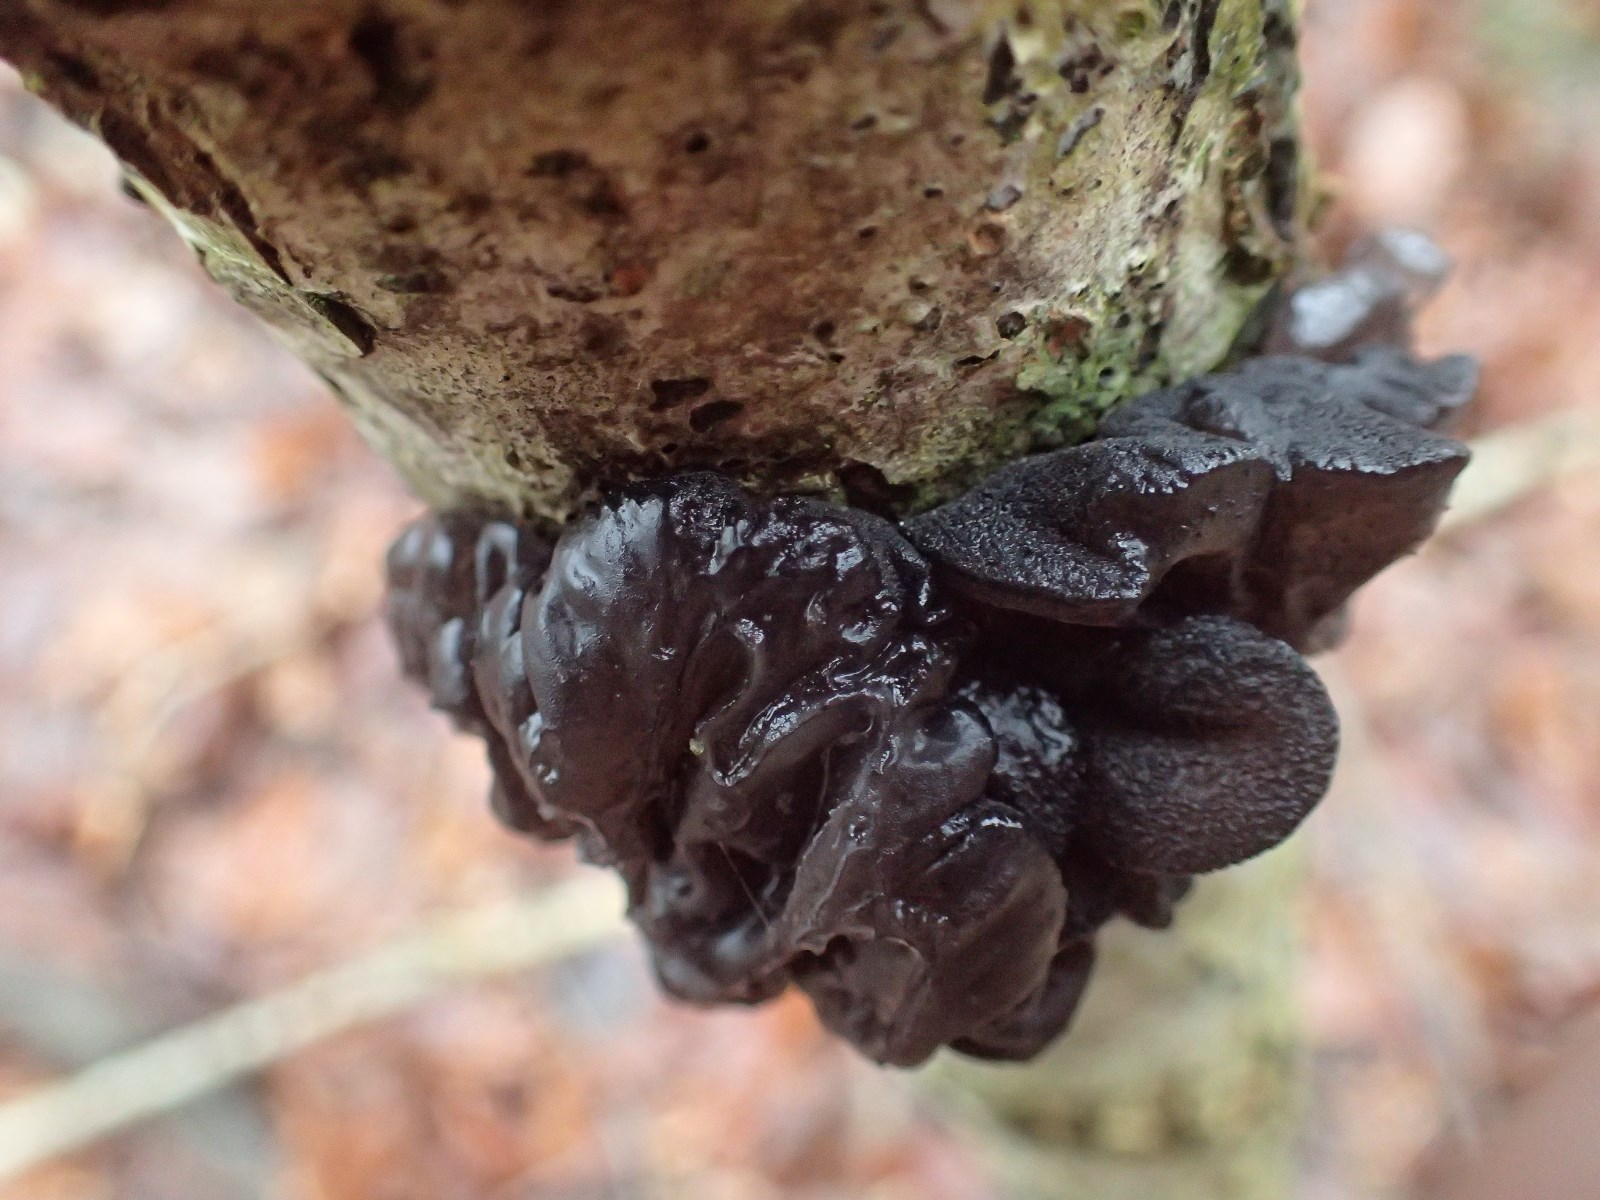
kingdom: Fungi
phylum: Basidiomycota
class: Agaricomycetes
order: Auriculariales
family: Auriculariaceae
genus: Exidia
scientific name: Exidia glandulosa
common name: ege-bævretop
